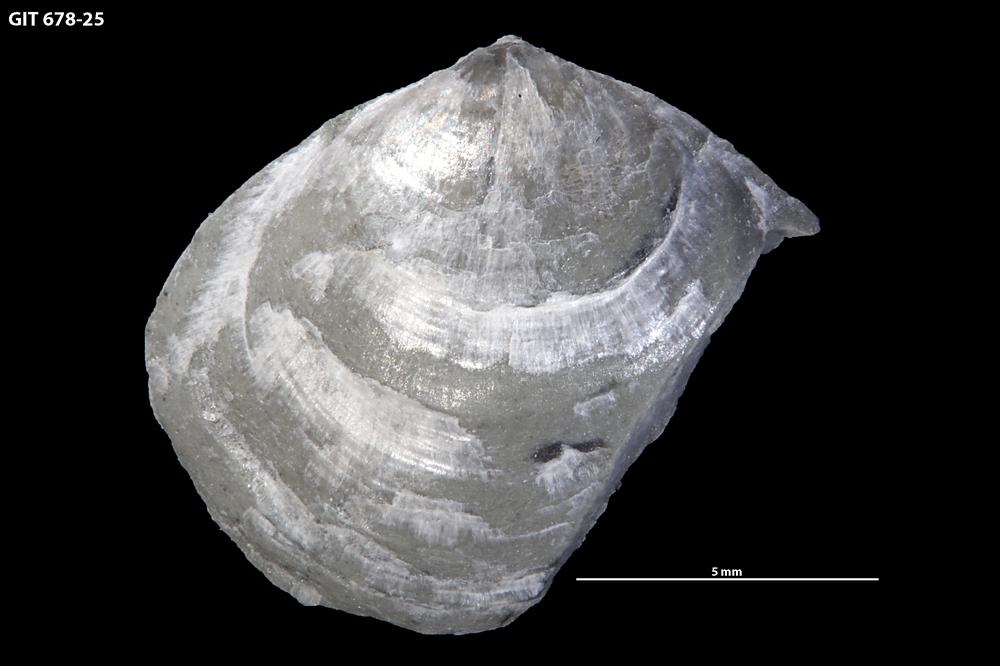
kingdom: Animalia
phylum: Brachiopoda
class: Rhynchonellata
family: Parastrophinidae
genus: Parastrophina
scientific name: Parastrophina Camerella dura
